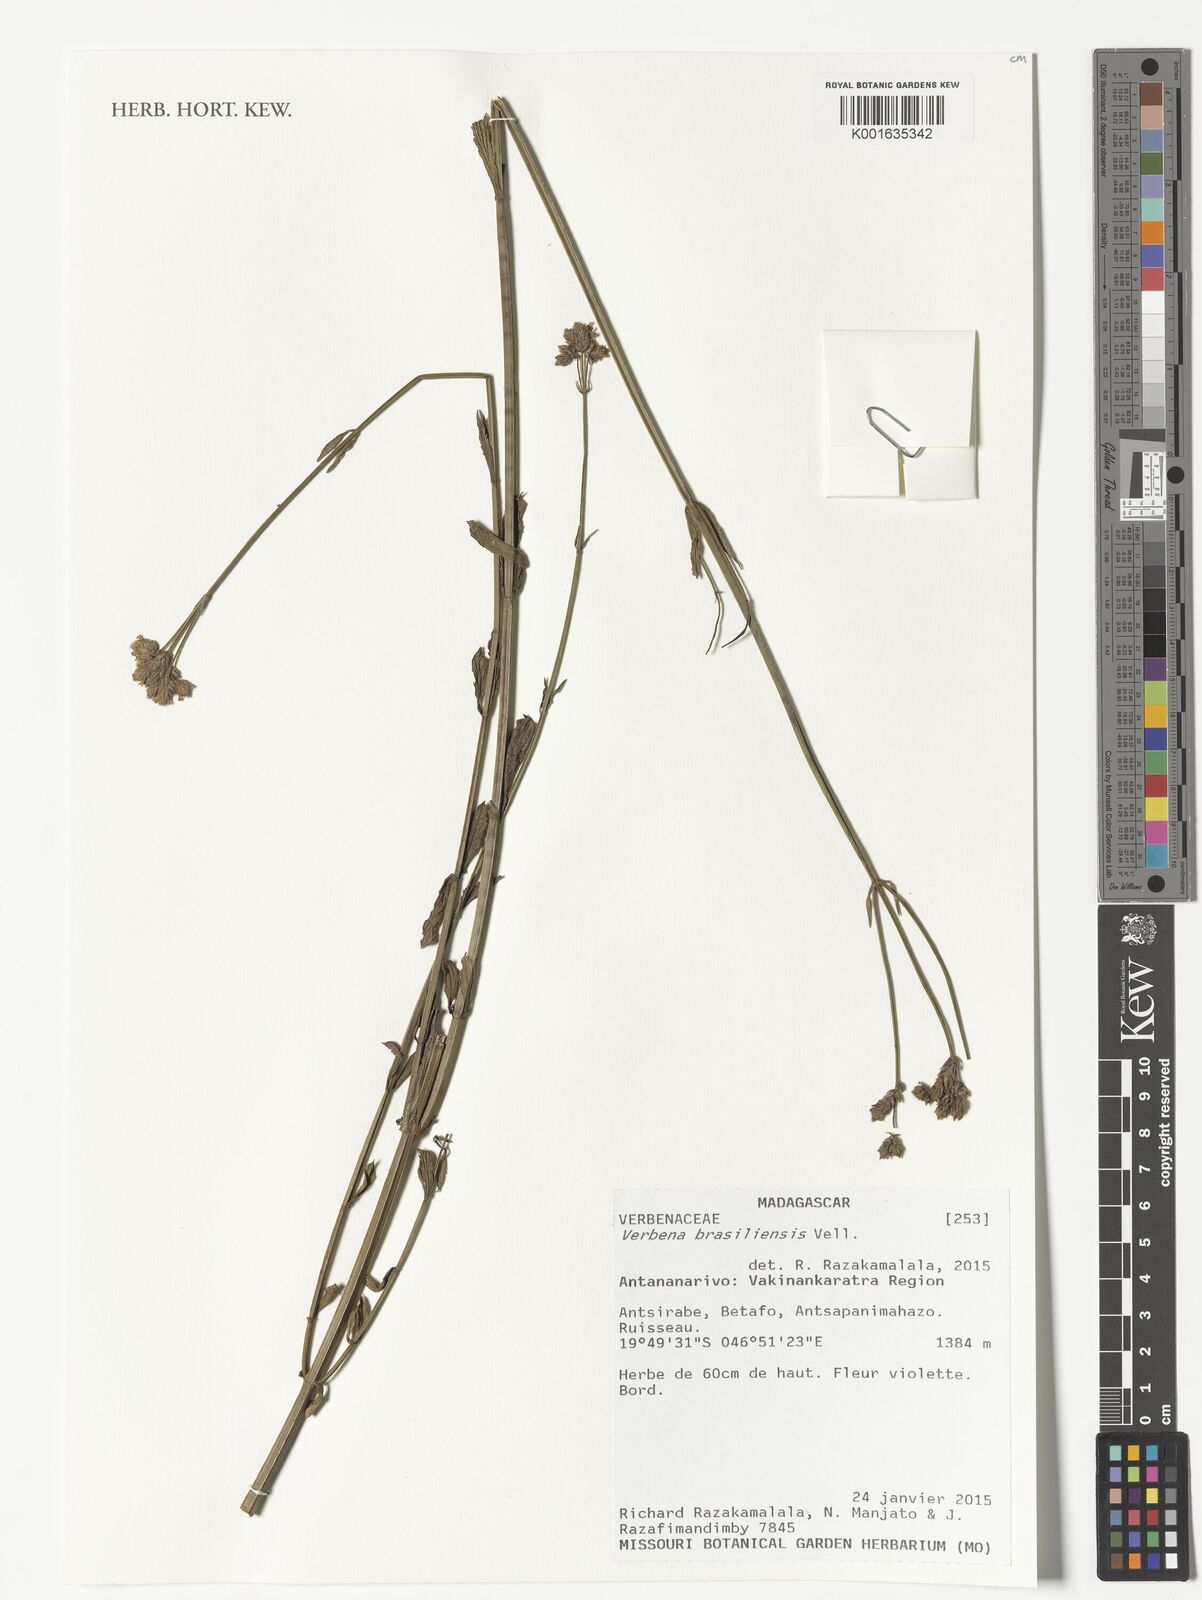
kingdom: Plantae
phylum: Tracheophyta
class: Magnoliopsida
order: Lamiales
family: Verbenaceae
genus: Verbena
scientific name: Verbena brasiliensis
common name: Brazilian vervain
